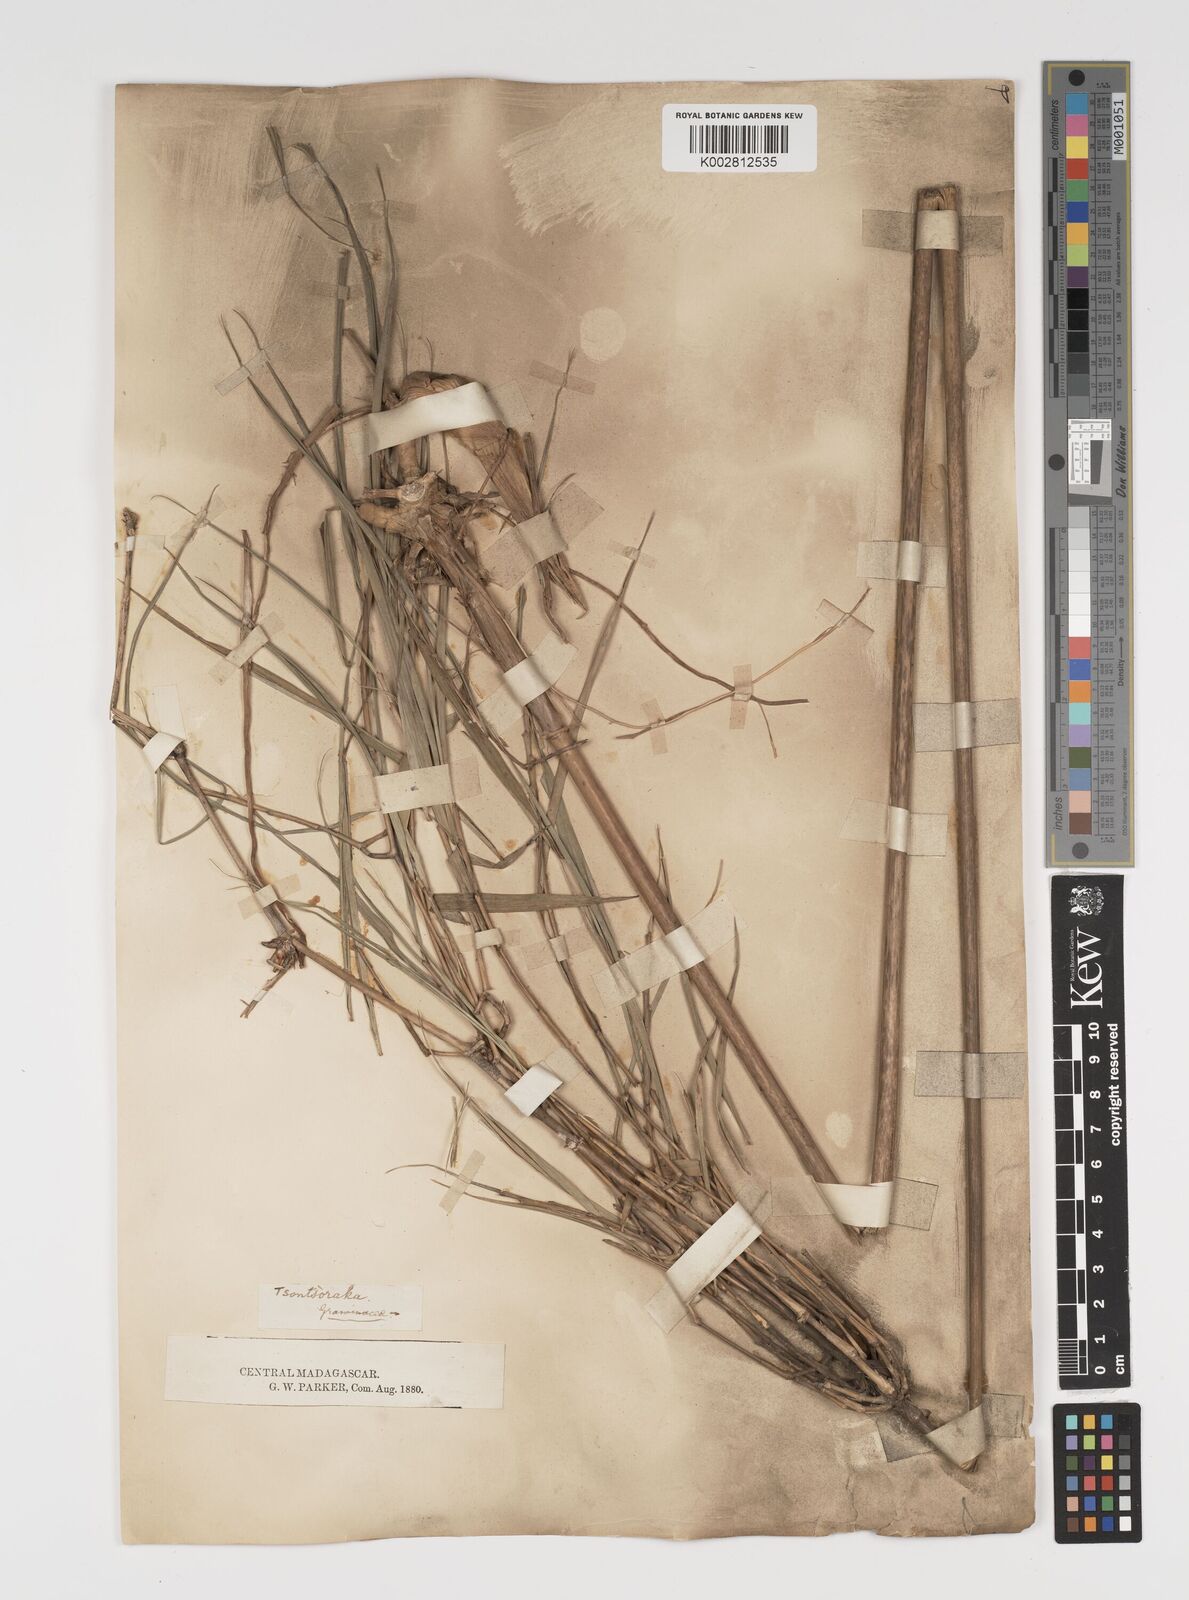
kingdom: Plantae
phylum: Tracheophyta
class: Liliopsida
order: Poales
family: Poaceae
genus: Arundinaria
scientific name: Arundinaria
